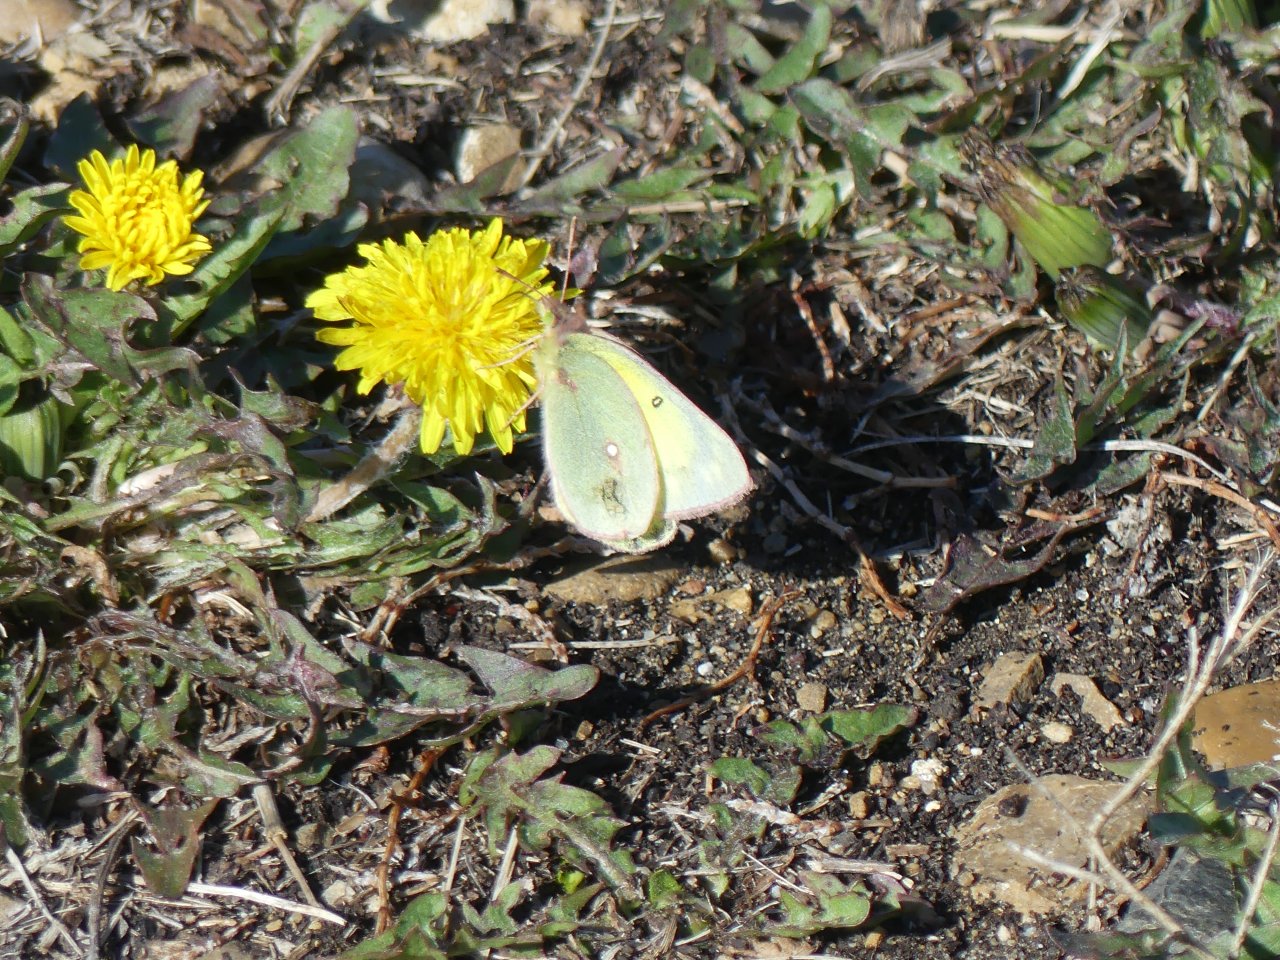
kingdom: Animalia
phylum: Arthropoda
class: Insecta
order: Lepidoptera
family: Pieridae
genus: Colias
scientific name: Colias philodice
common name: Clouded Sulphur
